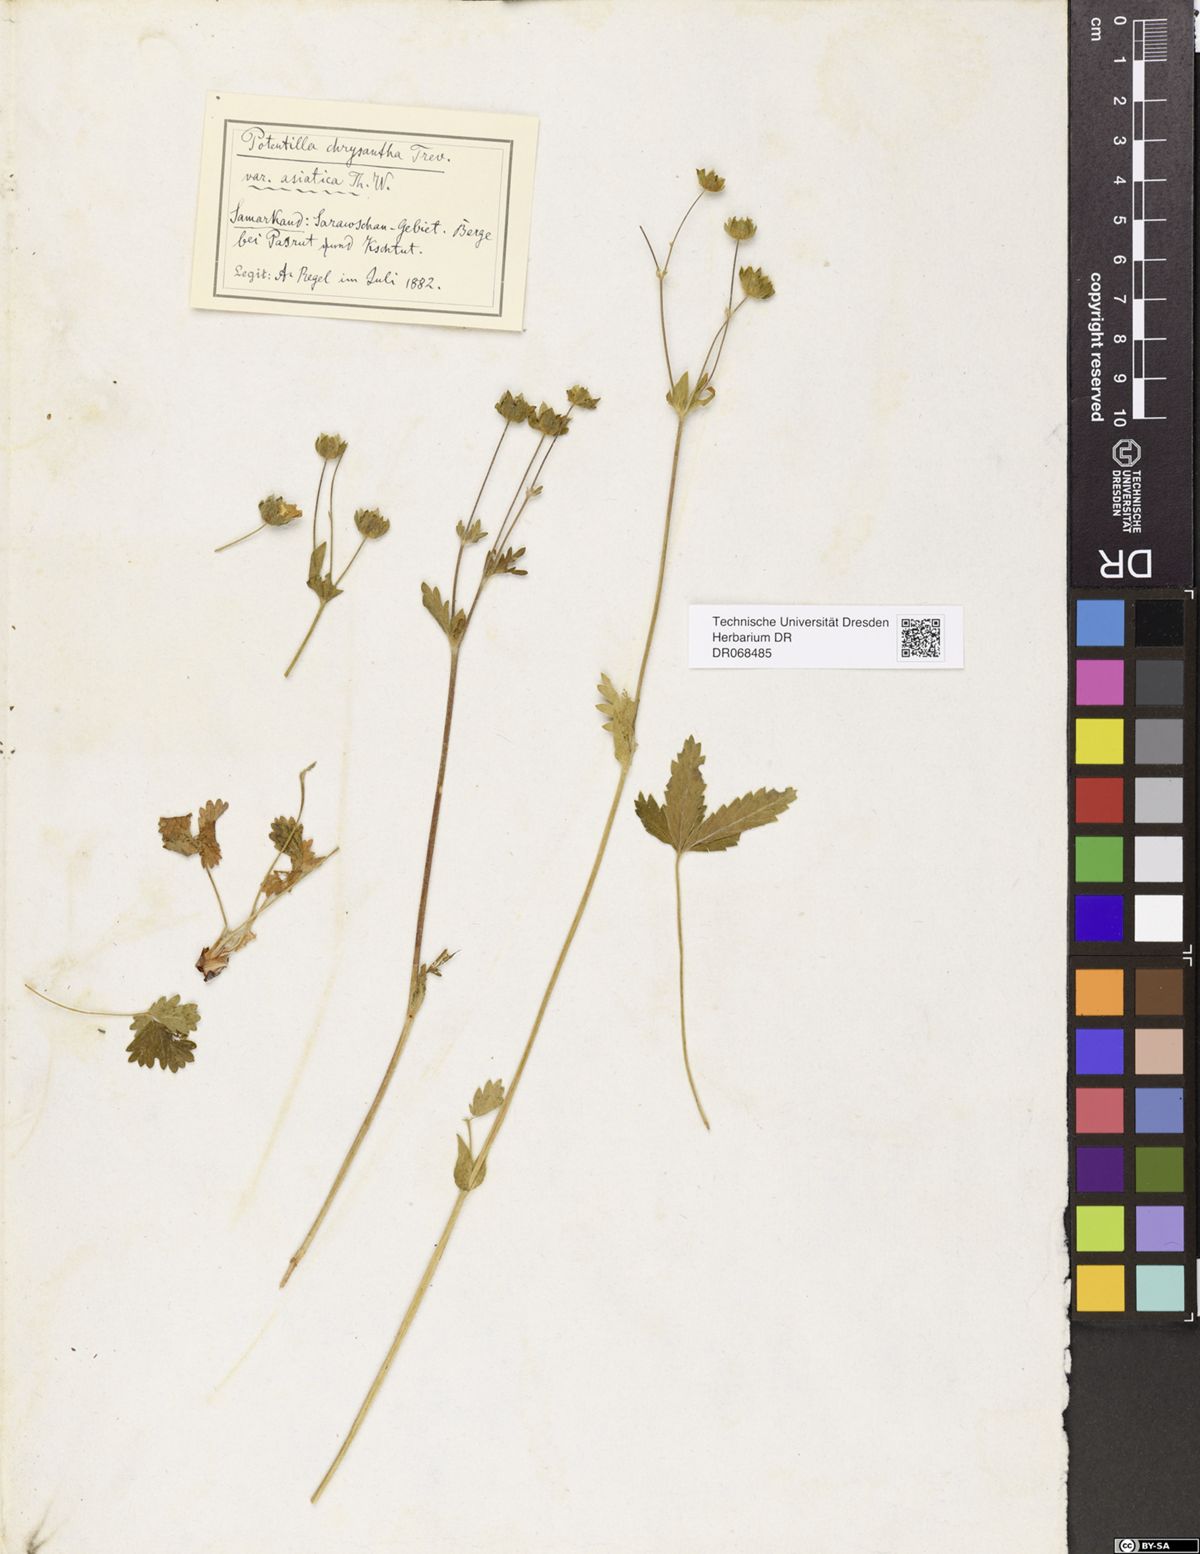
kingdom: Plantae
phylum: Tracheophyta
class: Magnoliopsida
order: Rosales
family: Rosaceae
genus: Potentilla
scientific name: Potentilla asiatica
